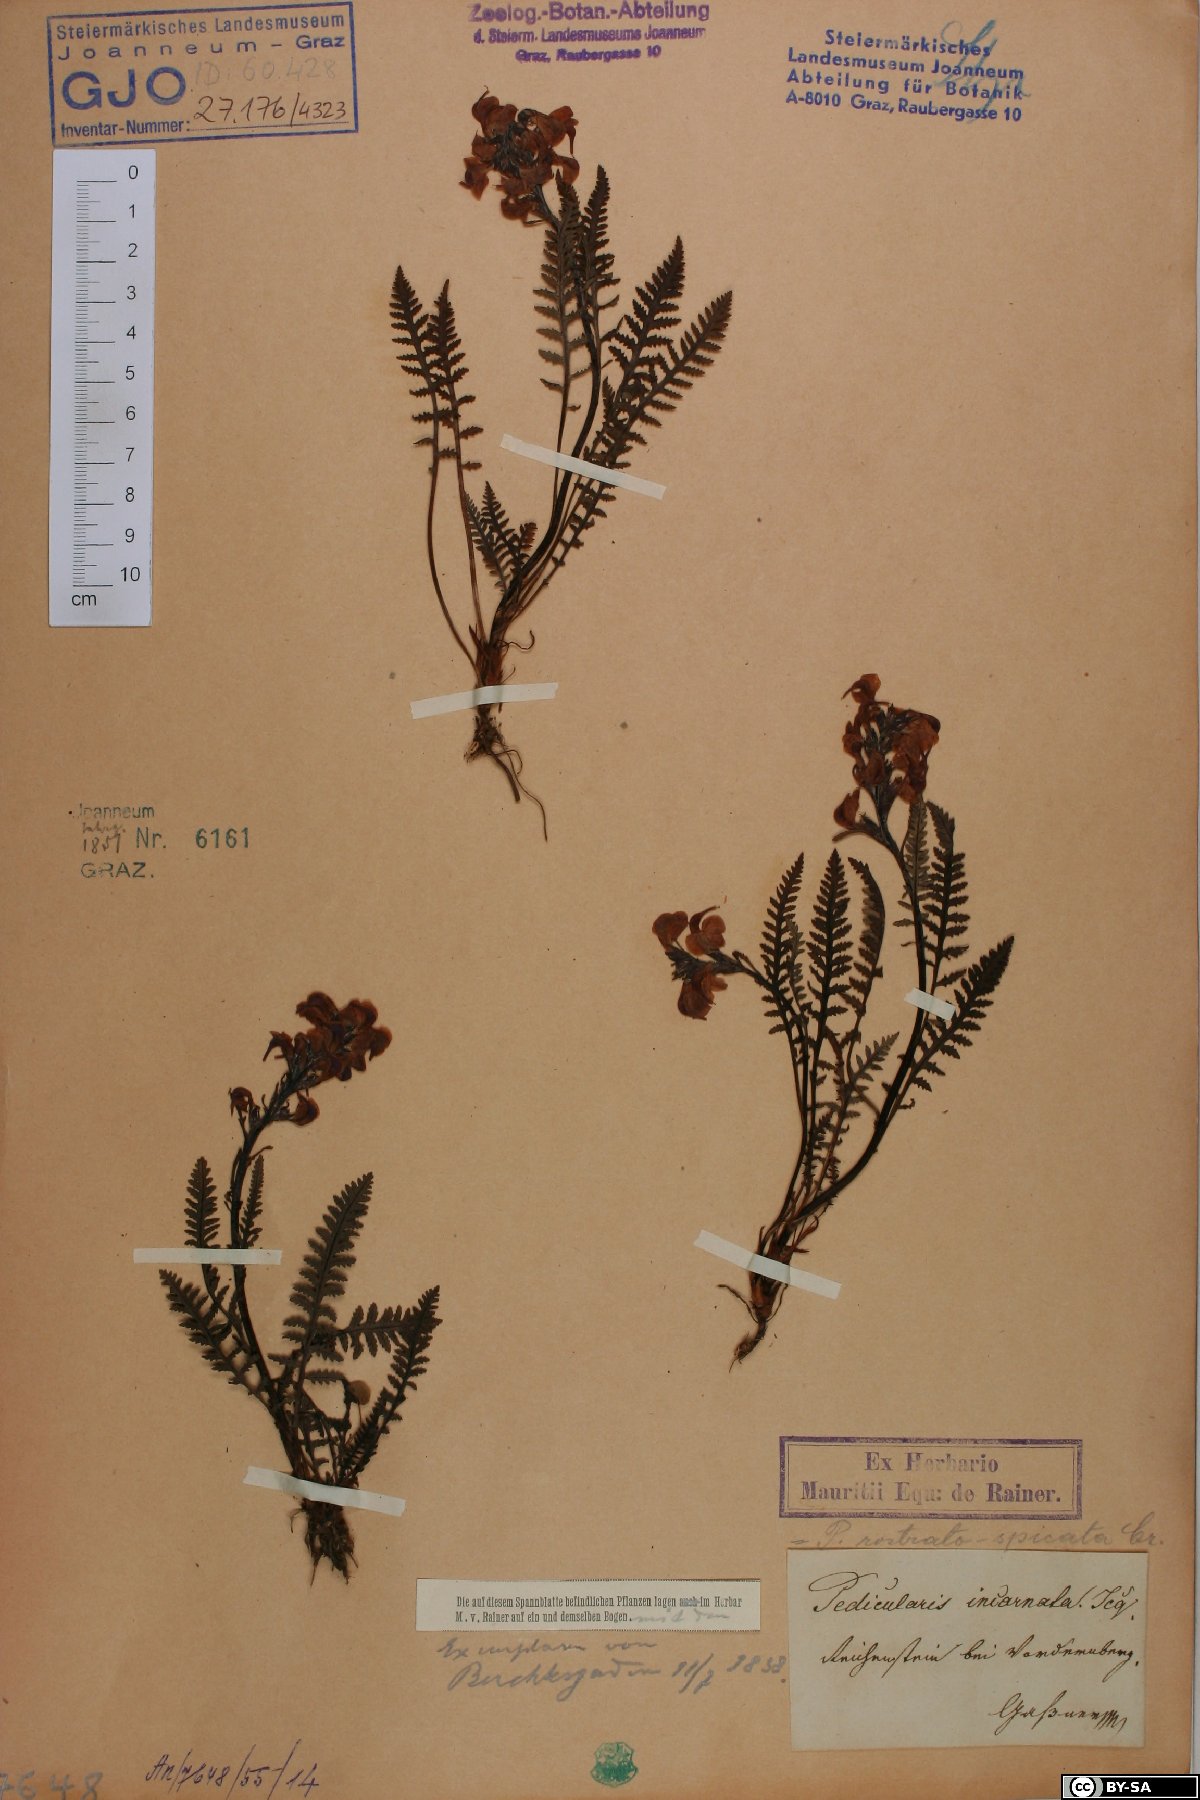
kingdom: Plantae
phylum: Tracheophyta
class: Magnoliopsida
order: Lamiales
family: Orobanchaceae
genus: Pedicularis
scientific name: Pedicularis rostratospicata
